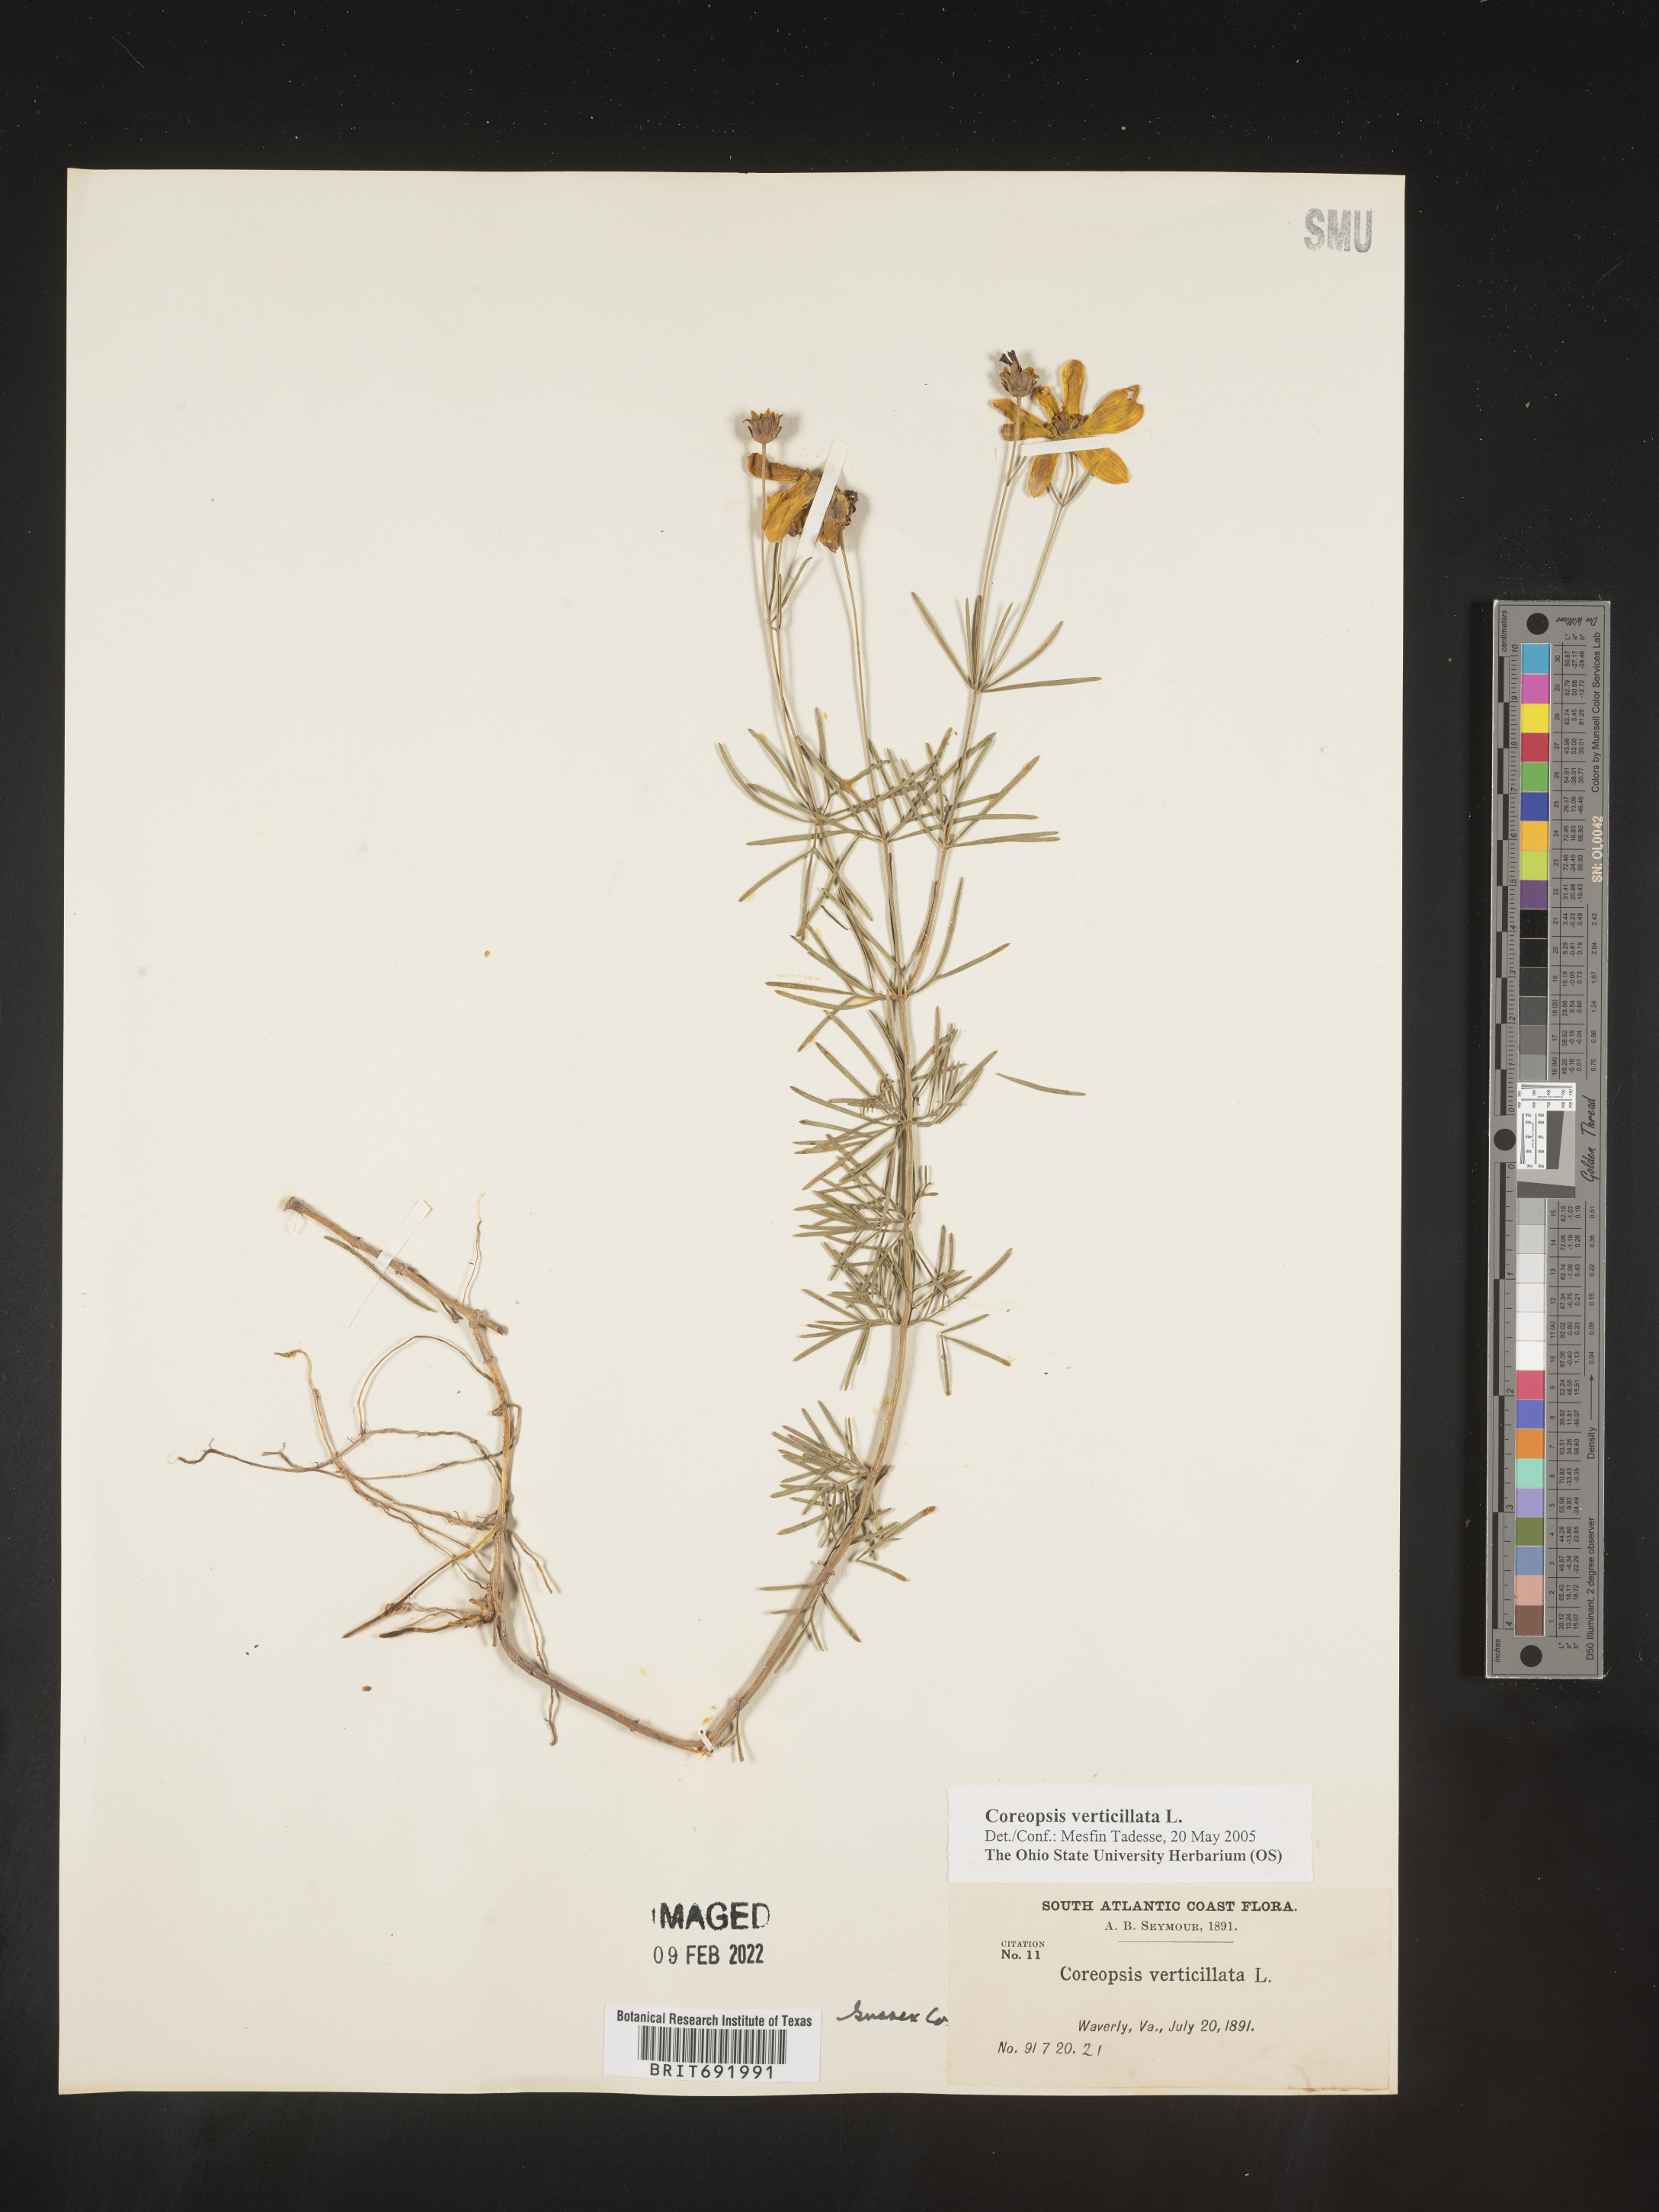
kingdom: Plantae
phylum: Tracheophyta
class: Magnoliopsida
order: Asterales
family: Asteraceae
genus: Coreopsis
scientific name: Coreopsis verticillata
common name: Whorled tickseed
